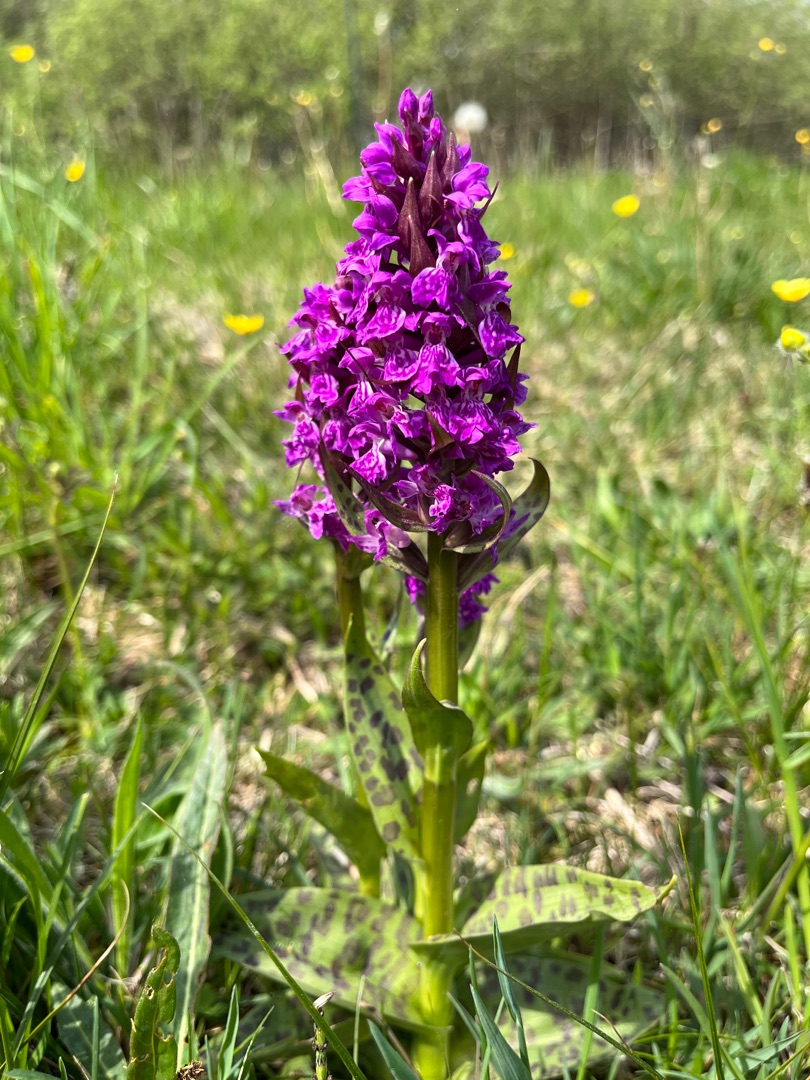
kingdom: Plantae
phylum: Tracheophyta
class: Liliopsida
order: Asparagales
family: Orchidaceae
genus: Dactylorhiza
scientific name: Dactylorhiza majalis
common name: Maj-gøgeurt
